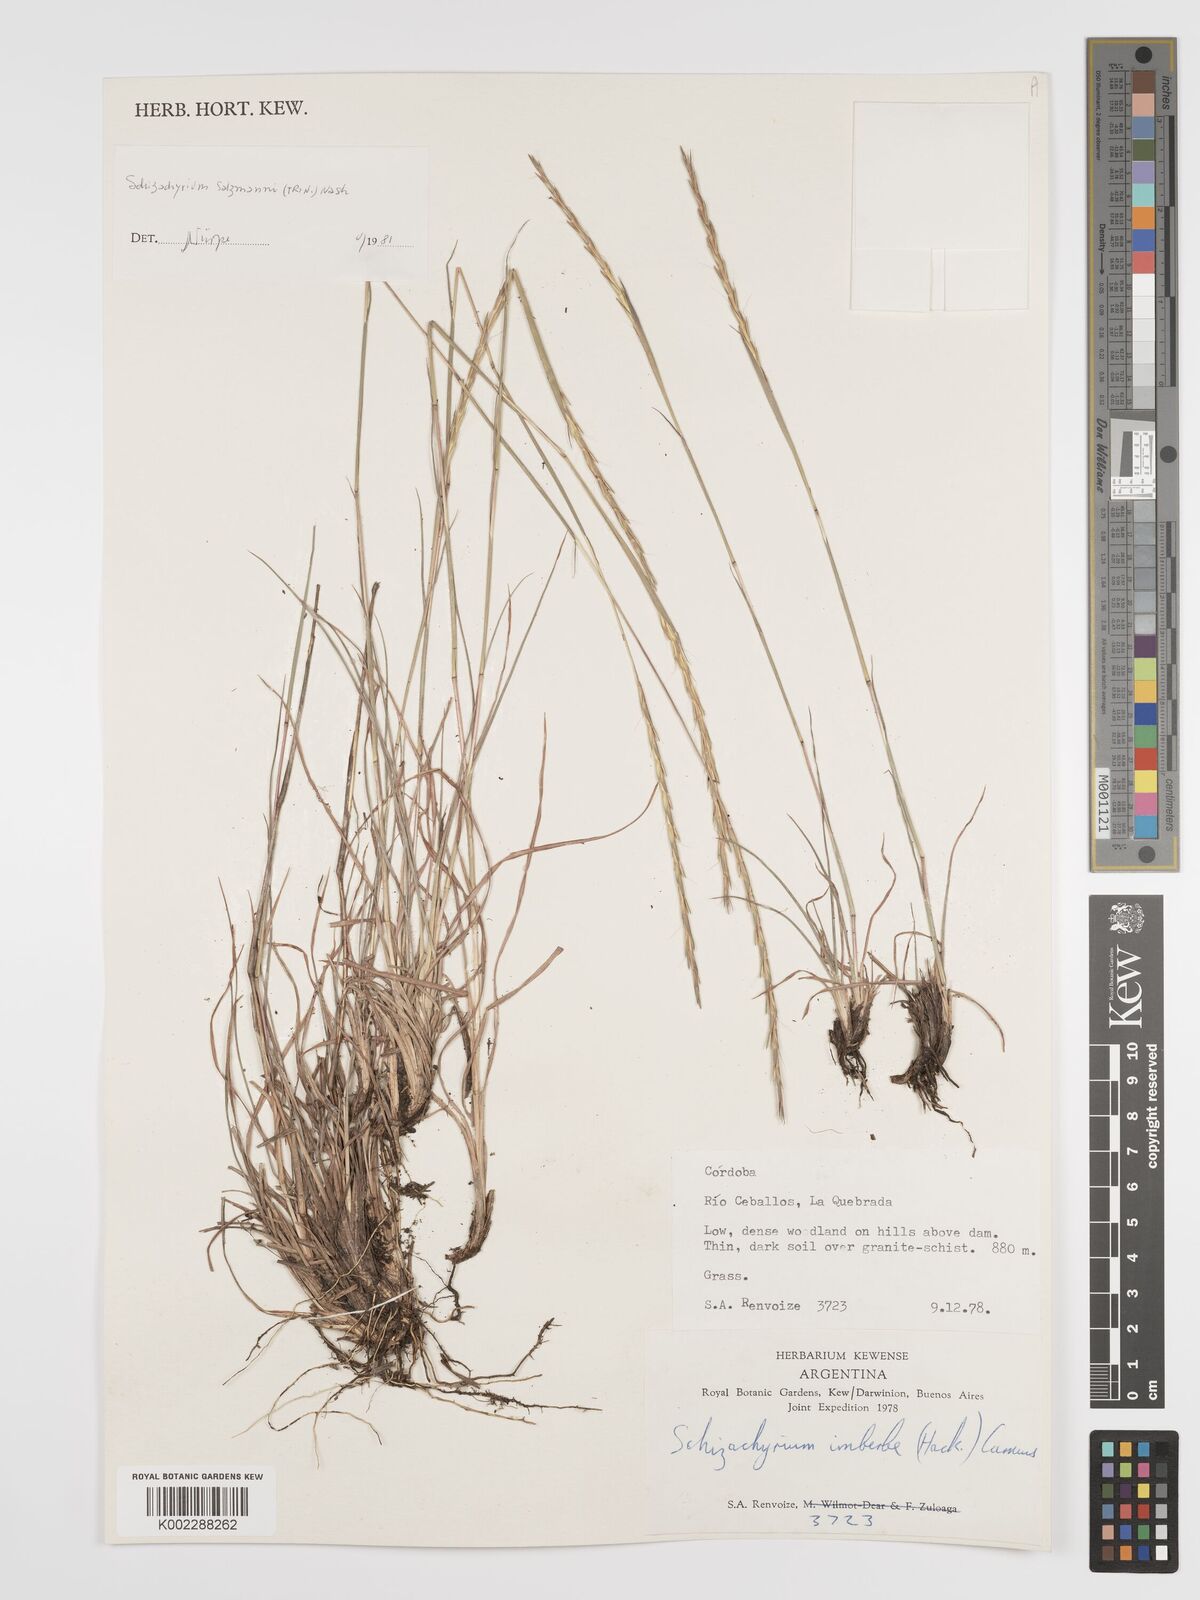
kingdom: Plantae
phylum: Tracheophyta
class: Liliopsida
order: Poales
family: Poaceae
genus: Andropogon
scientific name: Andropogon salzmannii
